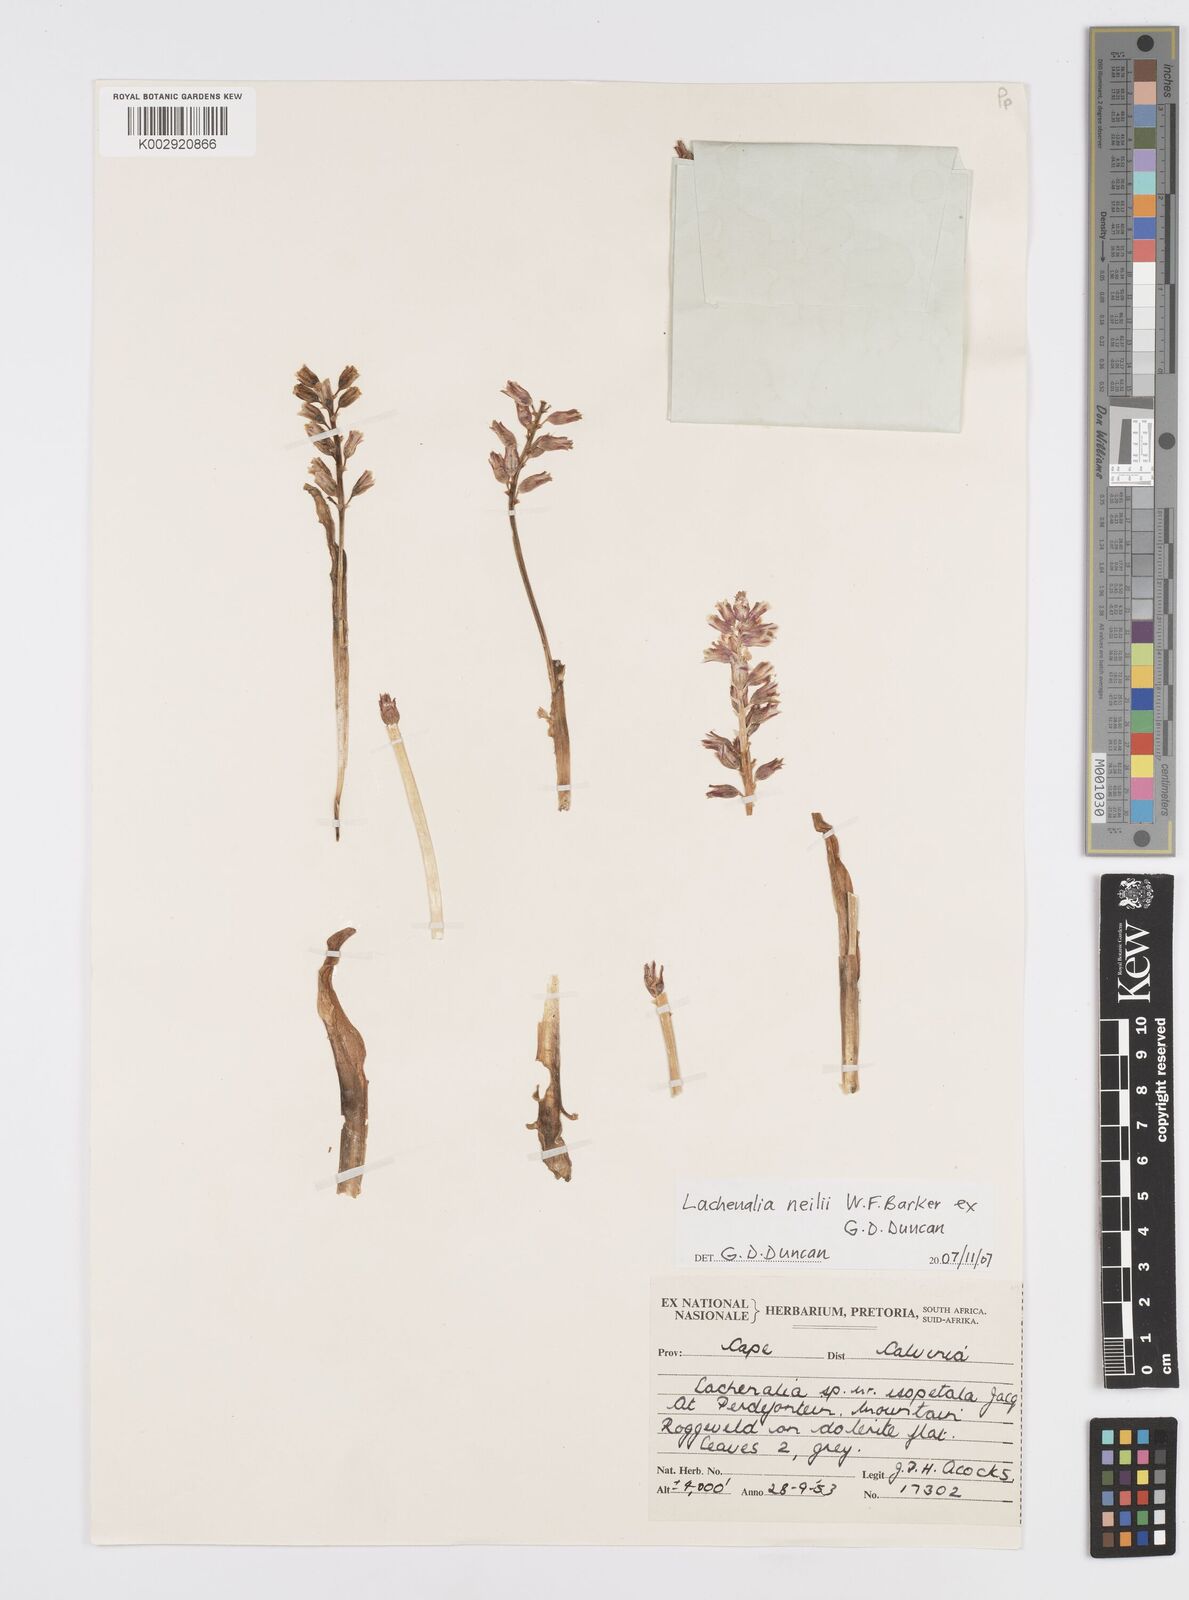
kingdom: Plantae
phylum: Tracheophyta
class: Liliopsida
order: Asparagales
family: Asparagaceae
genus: Lachenalia
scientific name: Lachenalia neilii
